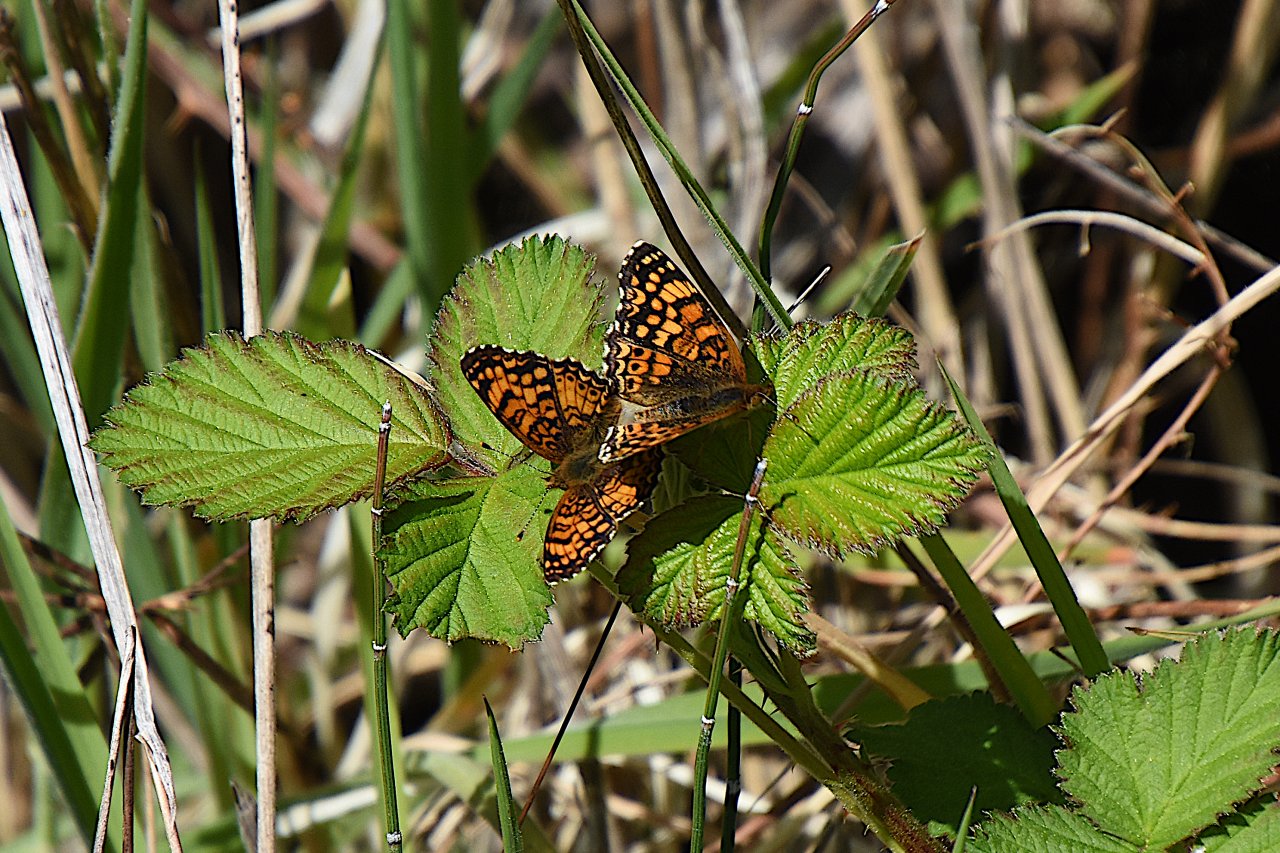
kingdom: Animalia
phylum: Arthropoda
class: Insecta
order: Lepidoptera
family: Nymphalidae
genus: Eresia
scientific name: Eresia aveyrona
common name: Mylitta Crescent
